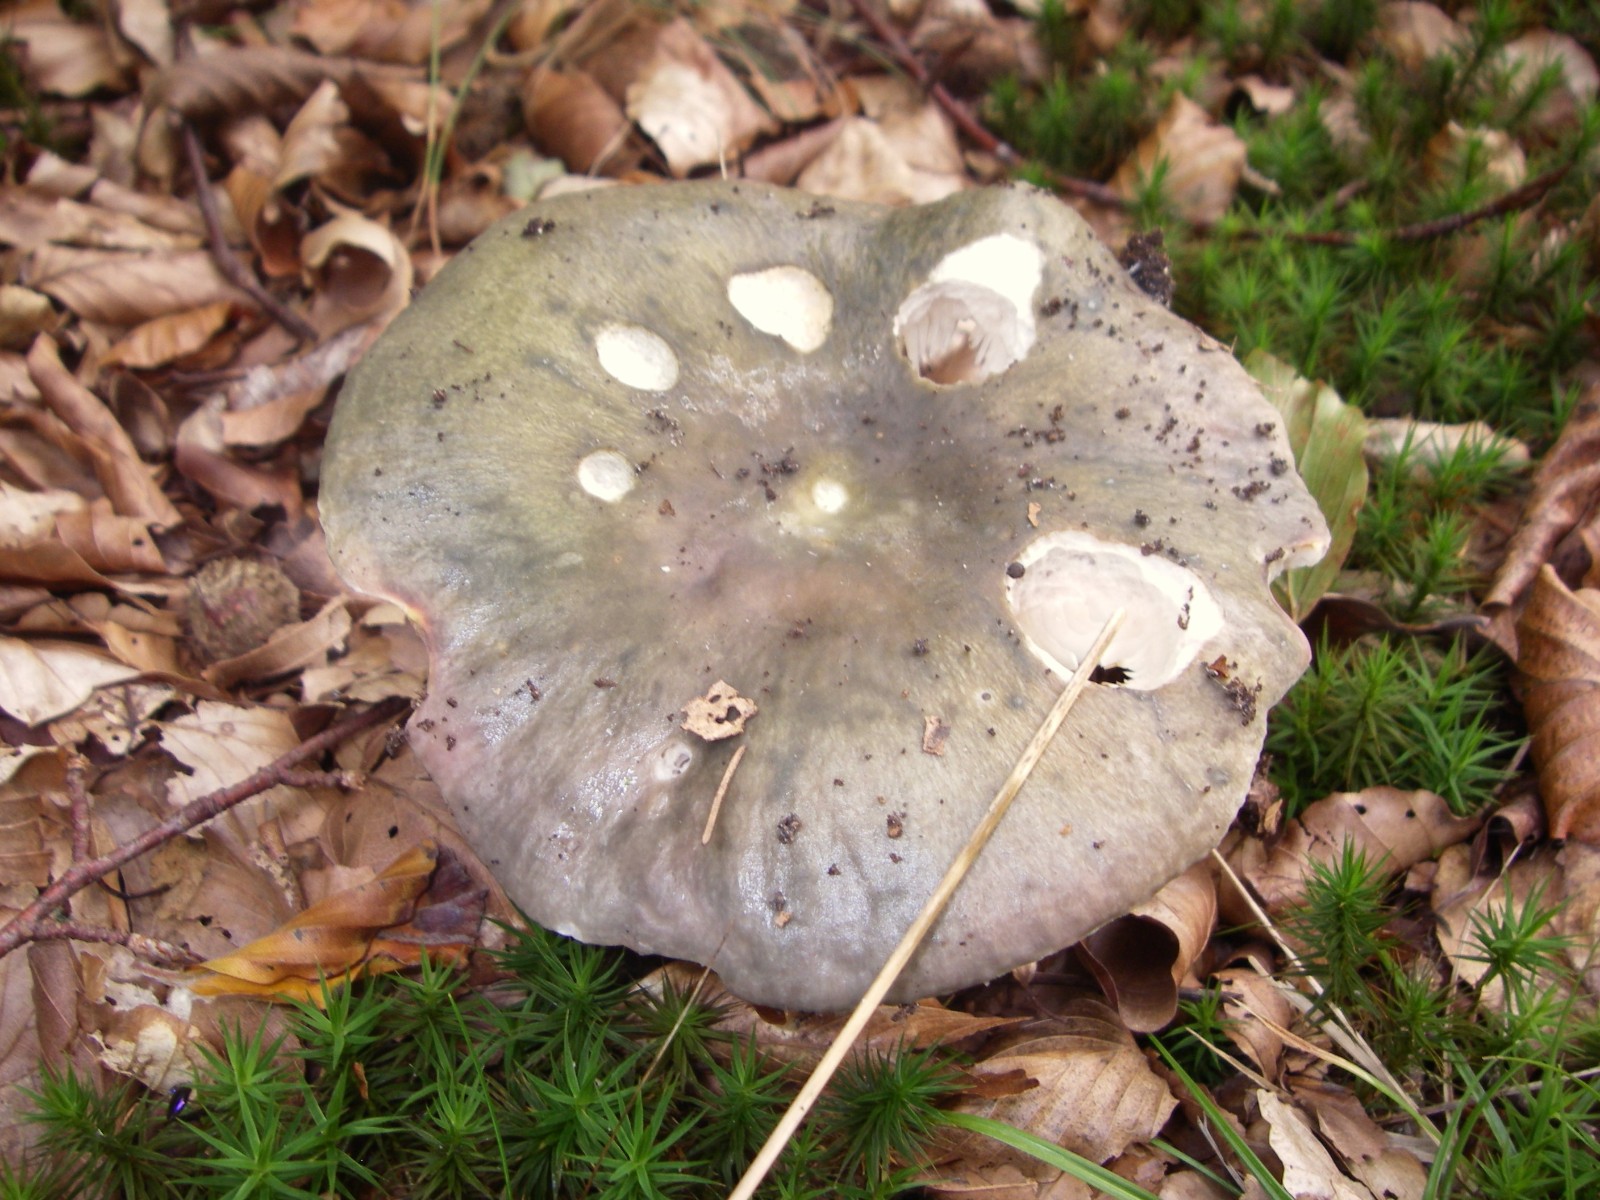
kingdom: Fungi
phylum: Basidiomycota
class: Agaricomycetes
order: Russulales
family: Russulaceae
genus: Russula
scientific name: Russula cyanoxantha
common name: broget skørhat
